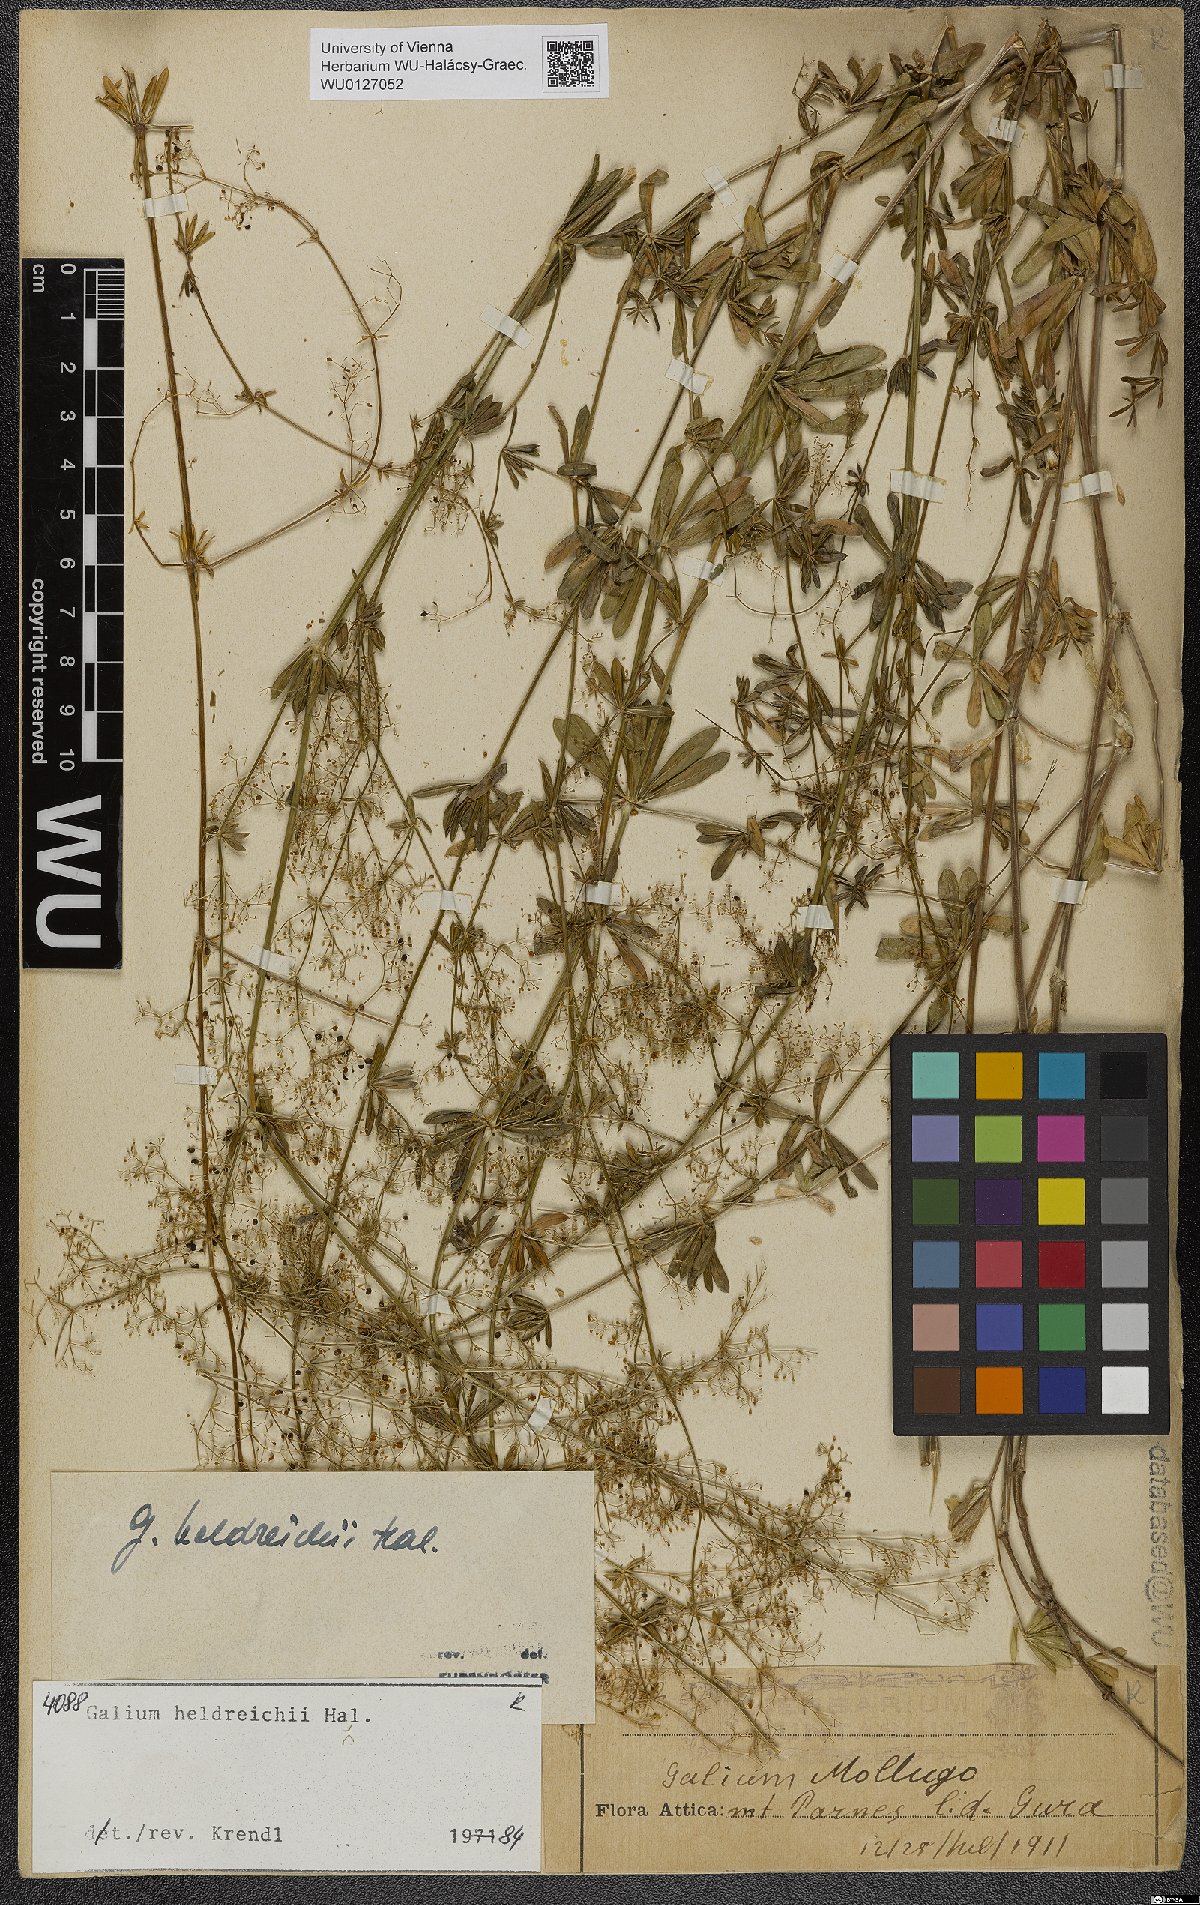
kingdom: Plantae
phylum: Tracheophyta
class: Magnoliopsida
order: Gentianales
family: Rubiaceae
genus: Galium
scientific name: Galium heldreichii
